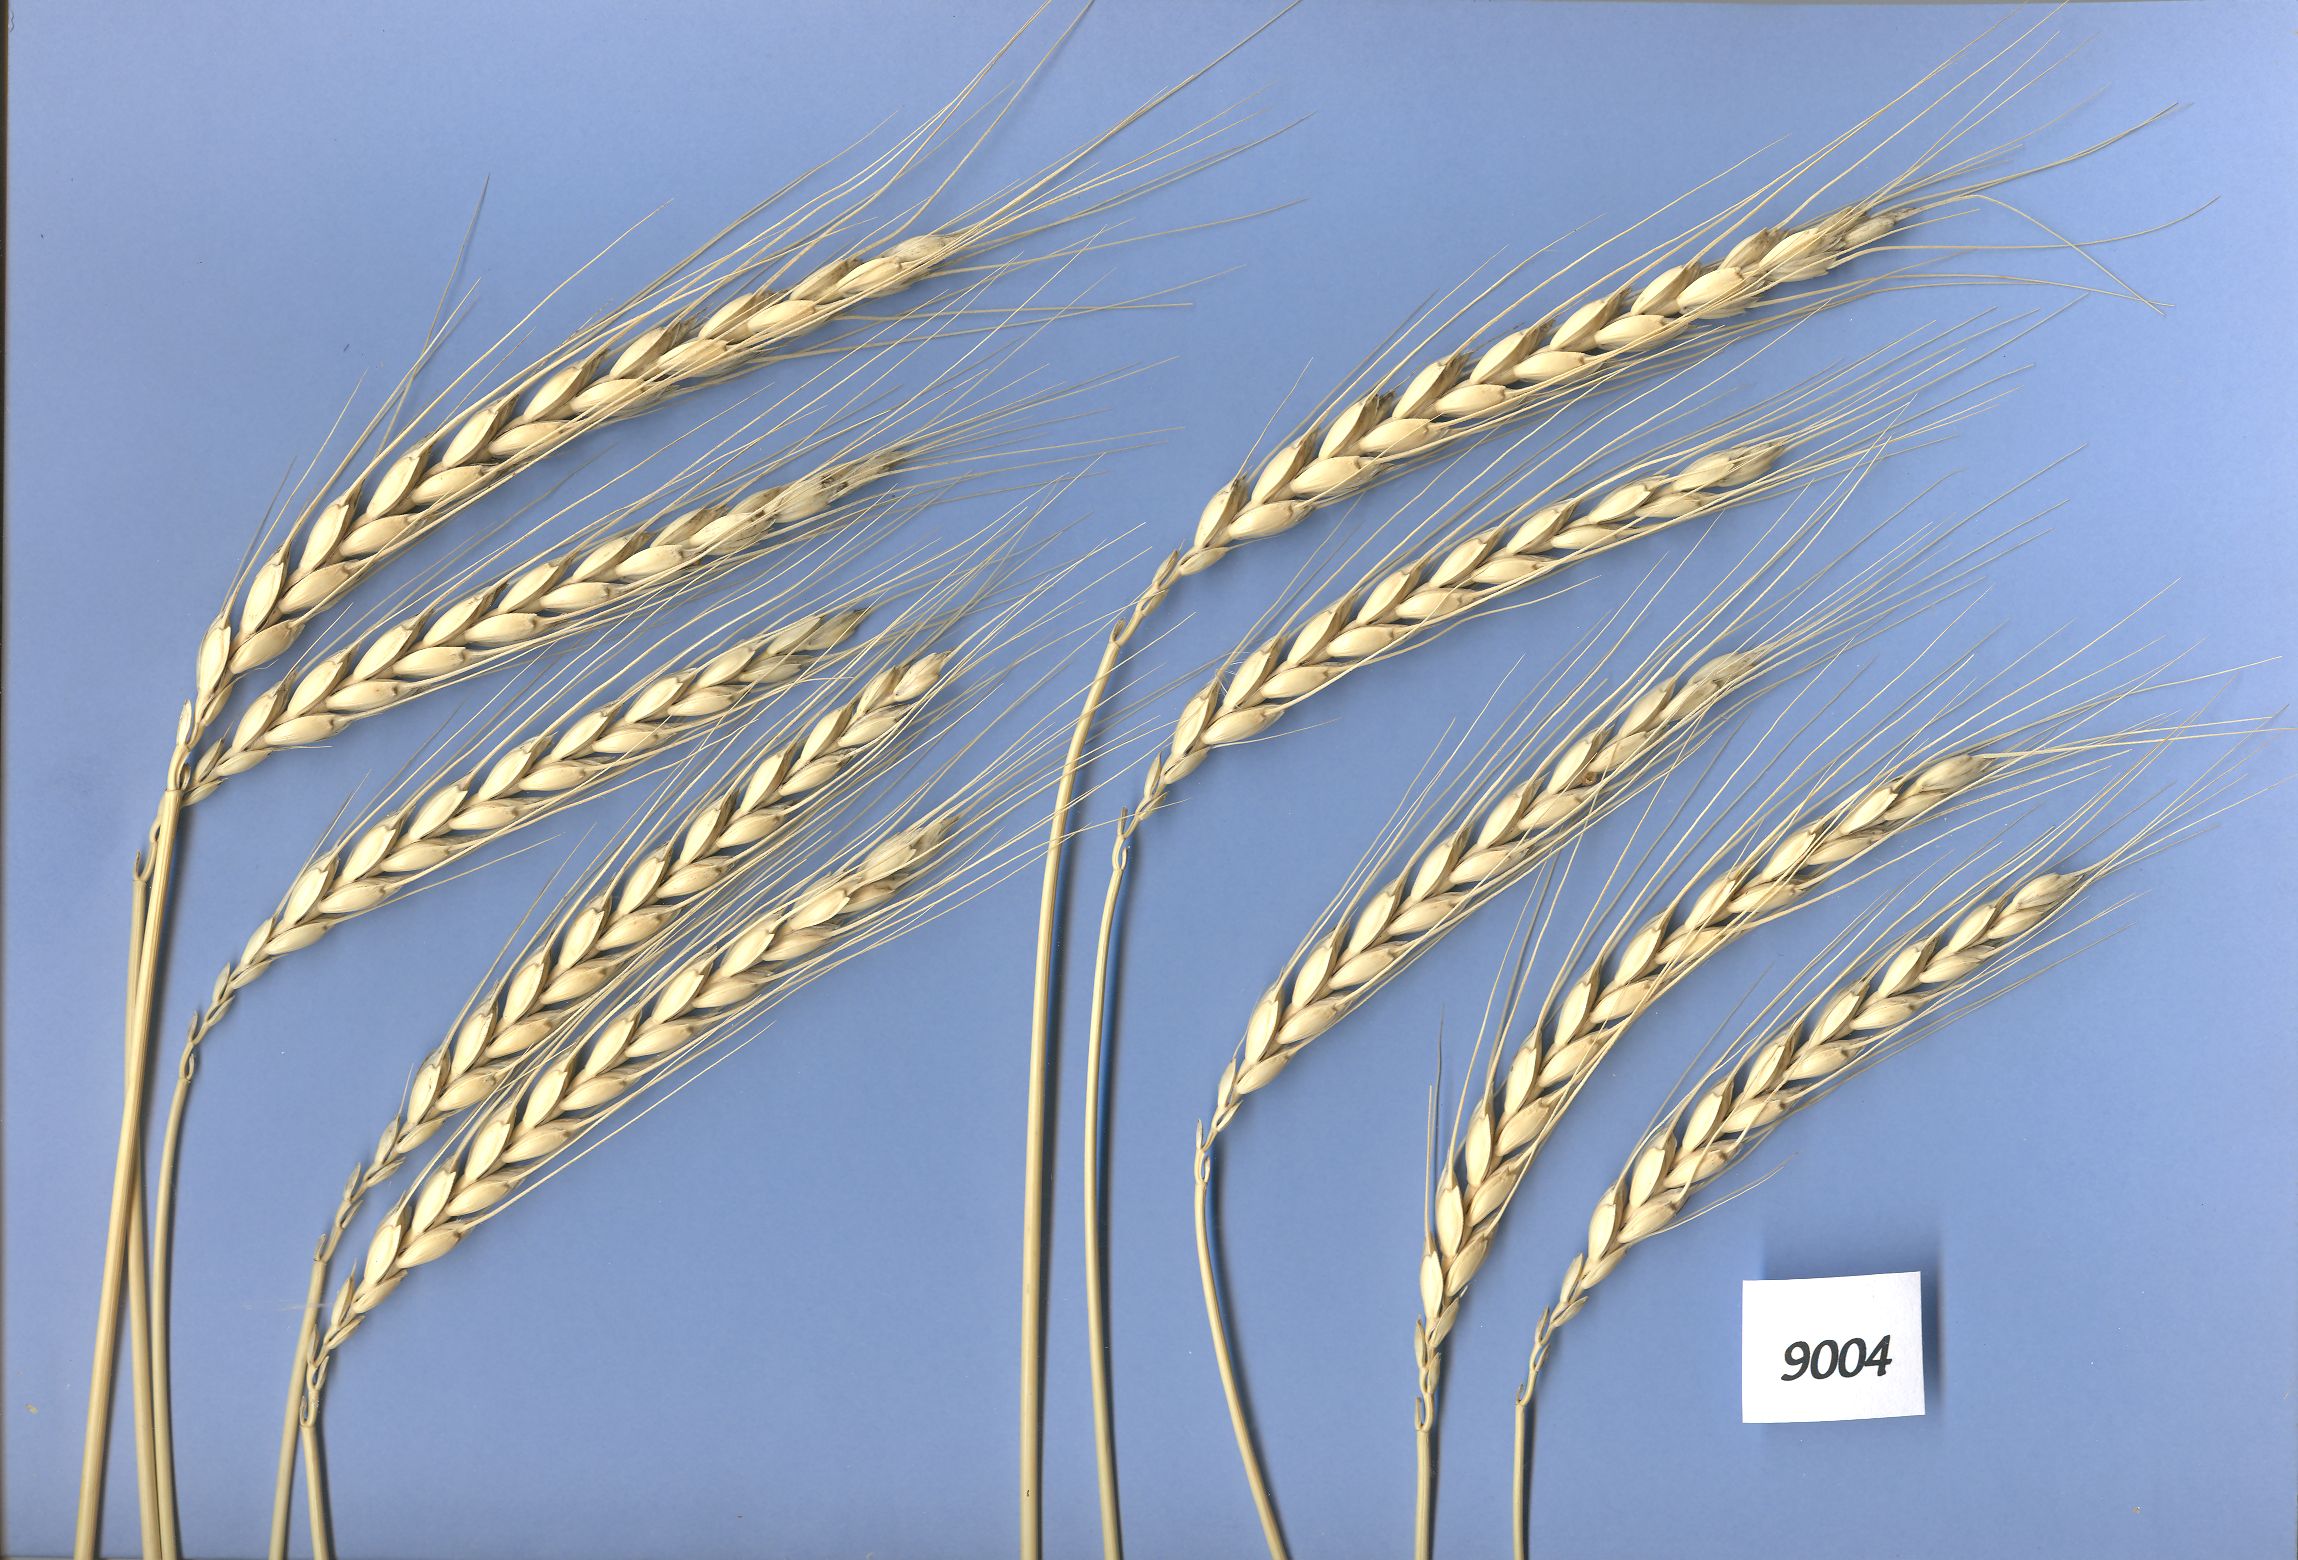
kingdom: Plantae
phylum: Tracheophyta
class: Liliopsida
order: Poales
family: Poaceae
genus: Triticum
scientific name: Triticum aestivum
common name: Common wheat
